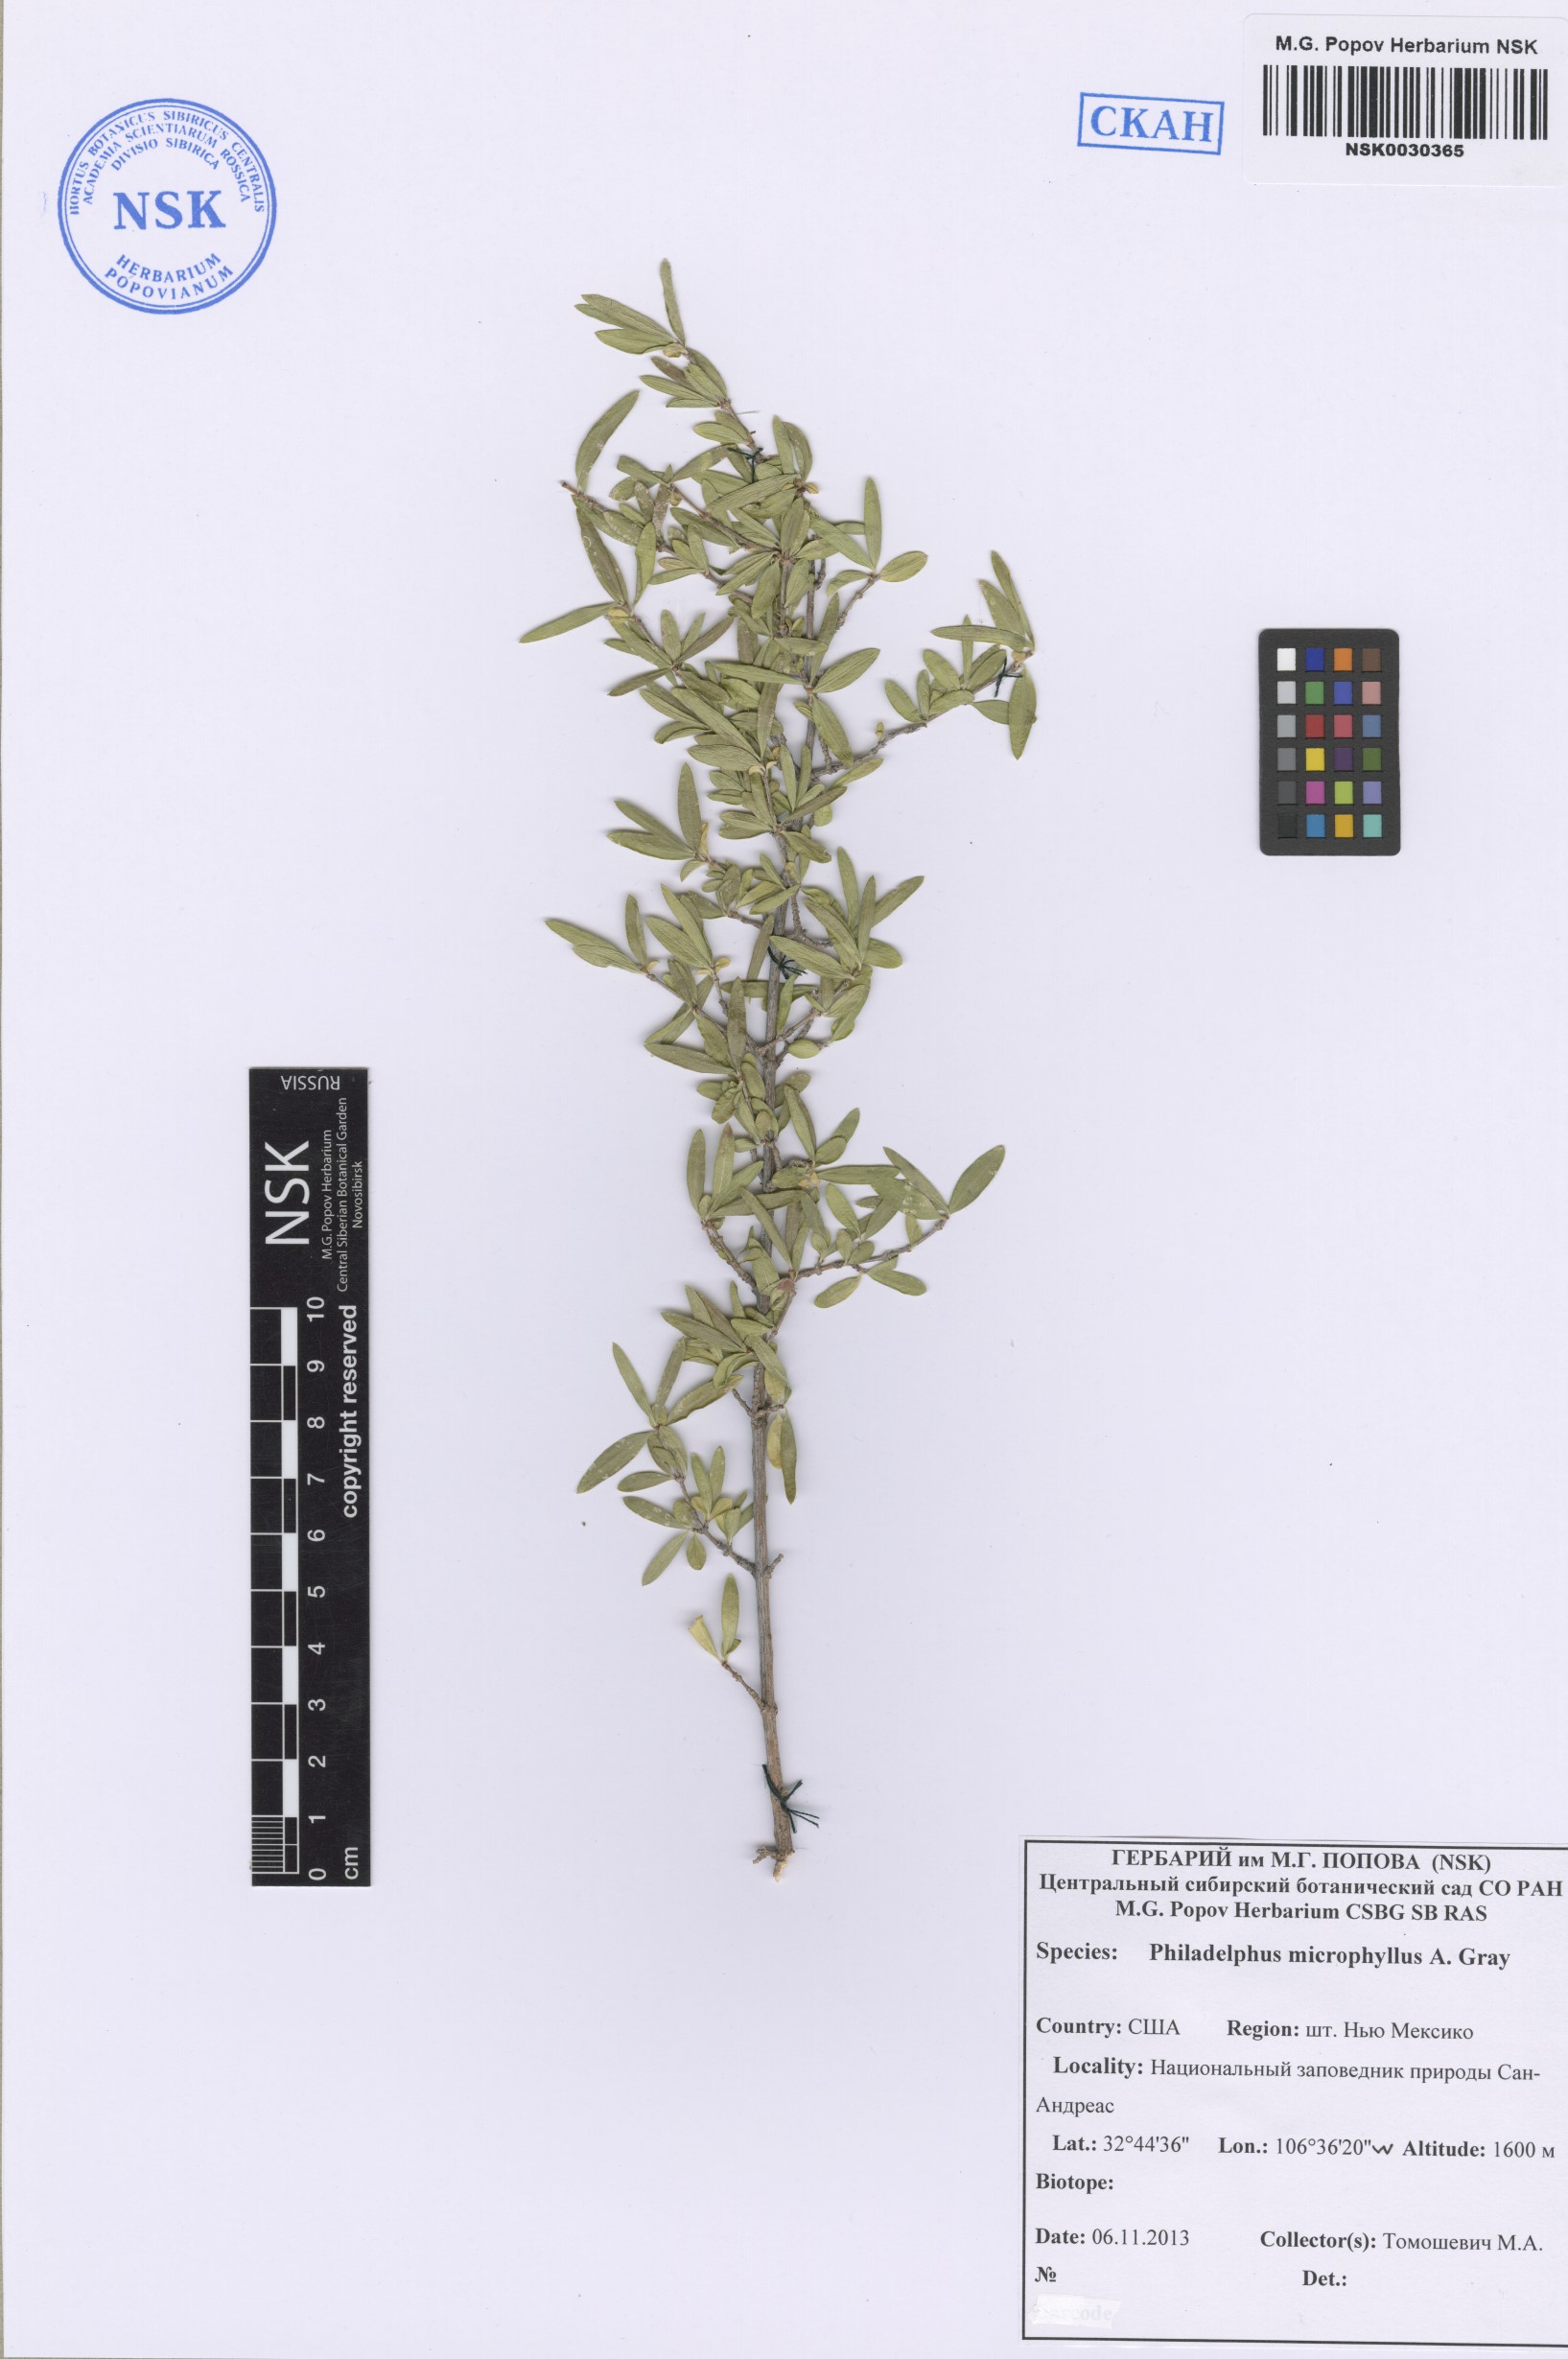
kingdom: Plantae
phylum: Tracheophyta
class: Magnoliopsida
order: Cornales
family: Hydrangeaceae
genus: Philadelphus
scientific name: Philadelphus microphyllus
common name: Desert mock orange
